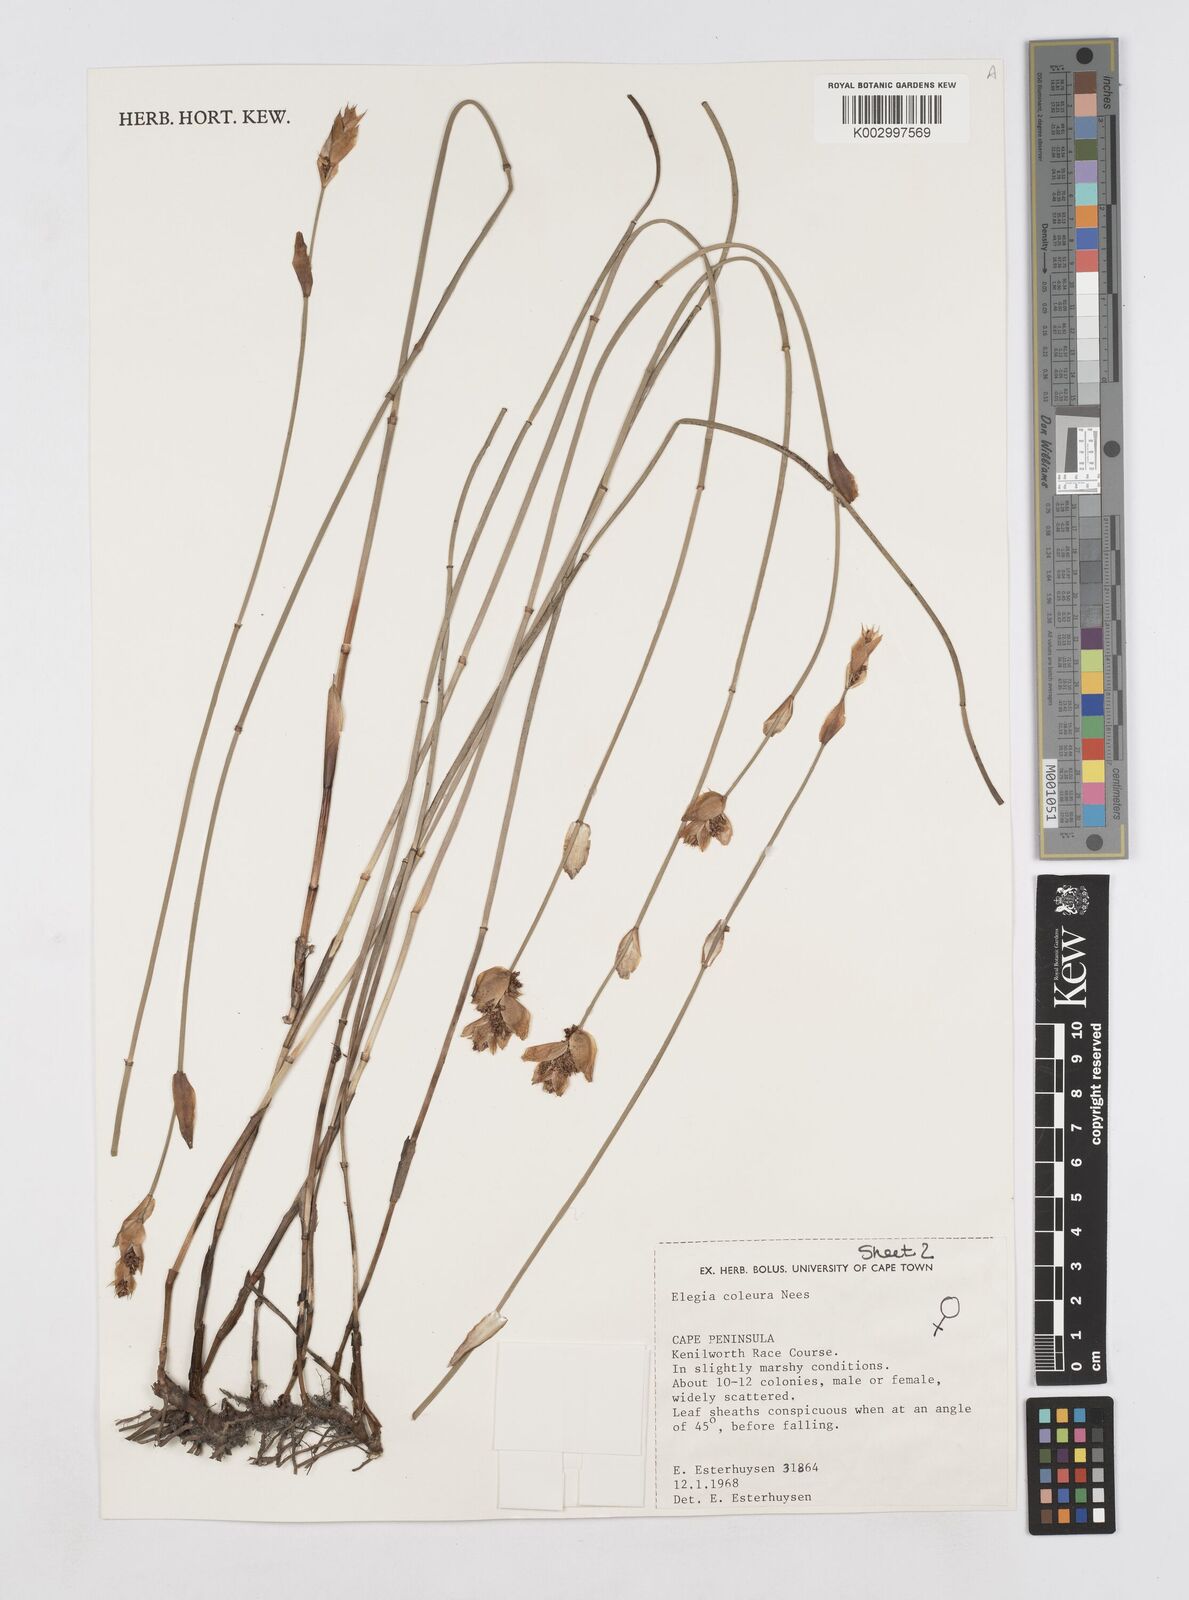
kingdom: Plantae
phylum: Tracheophyta
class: Liliopsida
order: Poales
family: Restionaceae
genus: Elegia
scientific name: Elegia coleura
